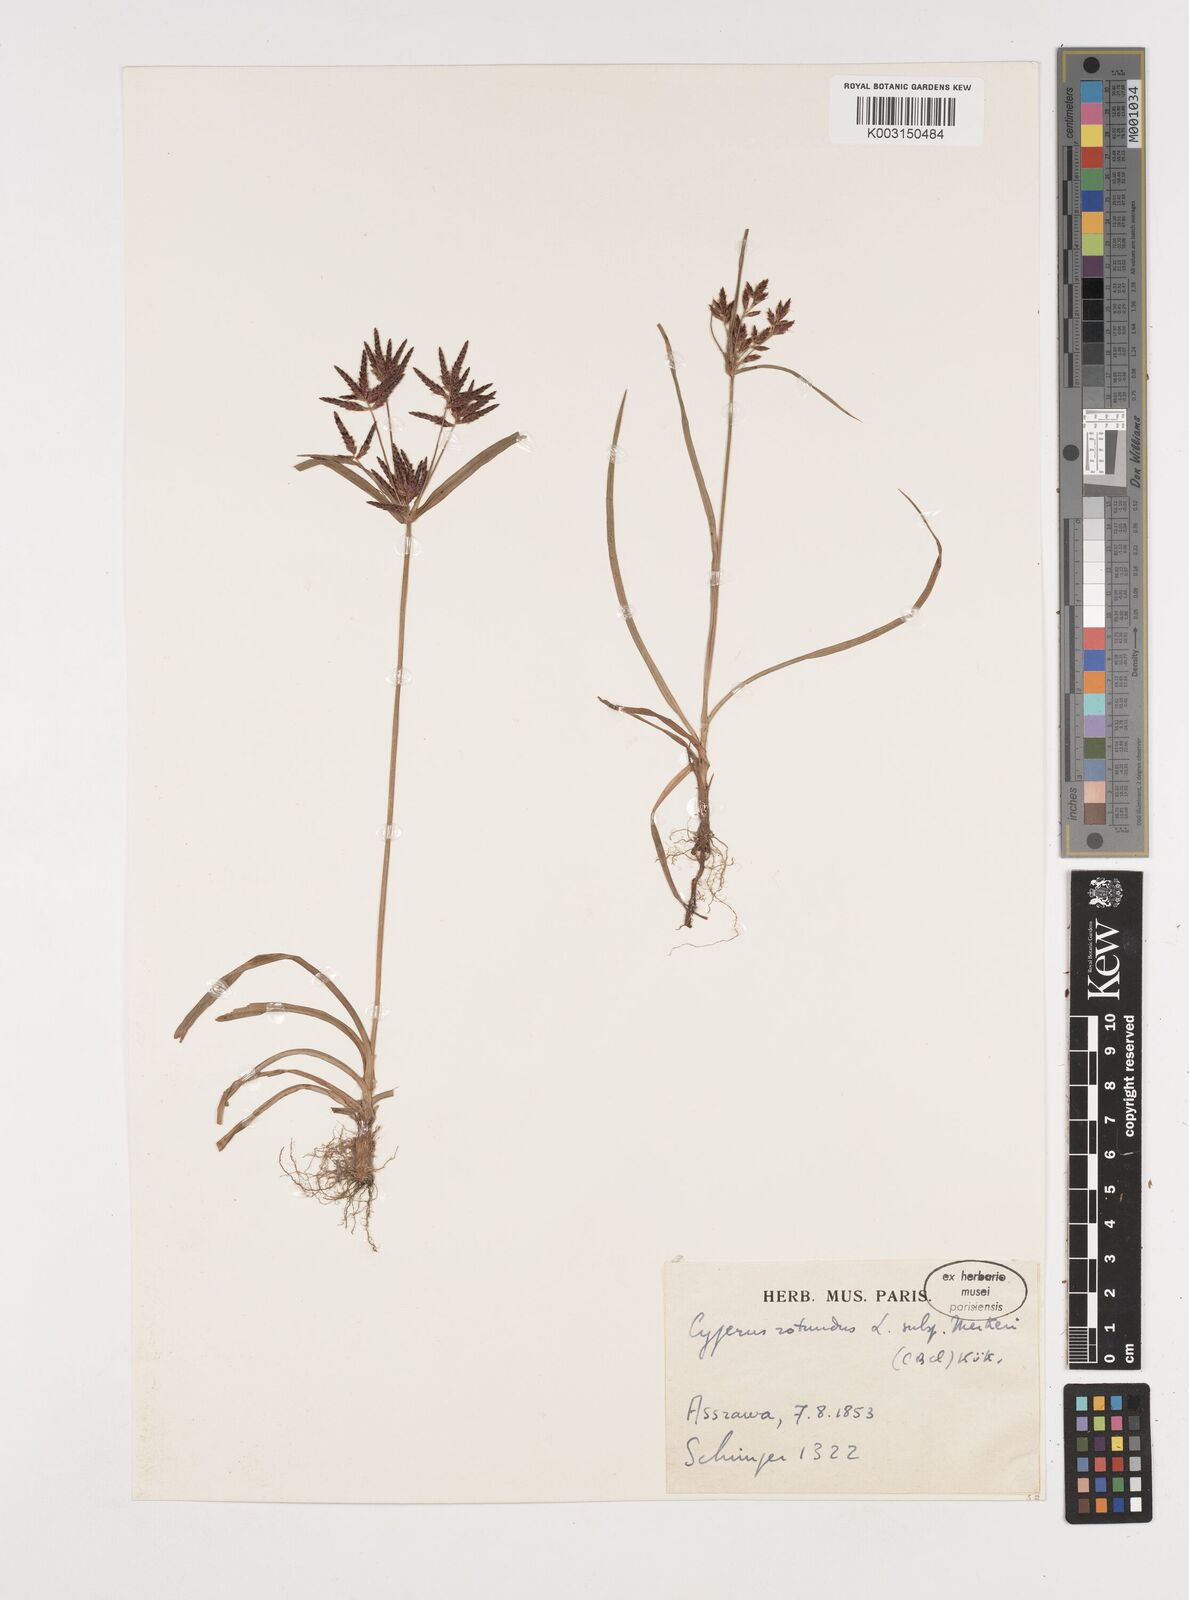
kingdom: Plantae
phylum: Tracheophyta
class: Liliopsida
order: Poales
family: Cyperaceae
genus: Cyperus
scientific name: Cyperus rotundus
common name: Nutgrass
